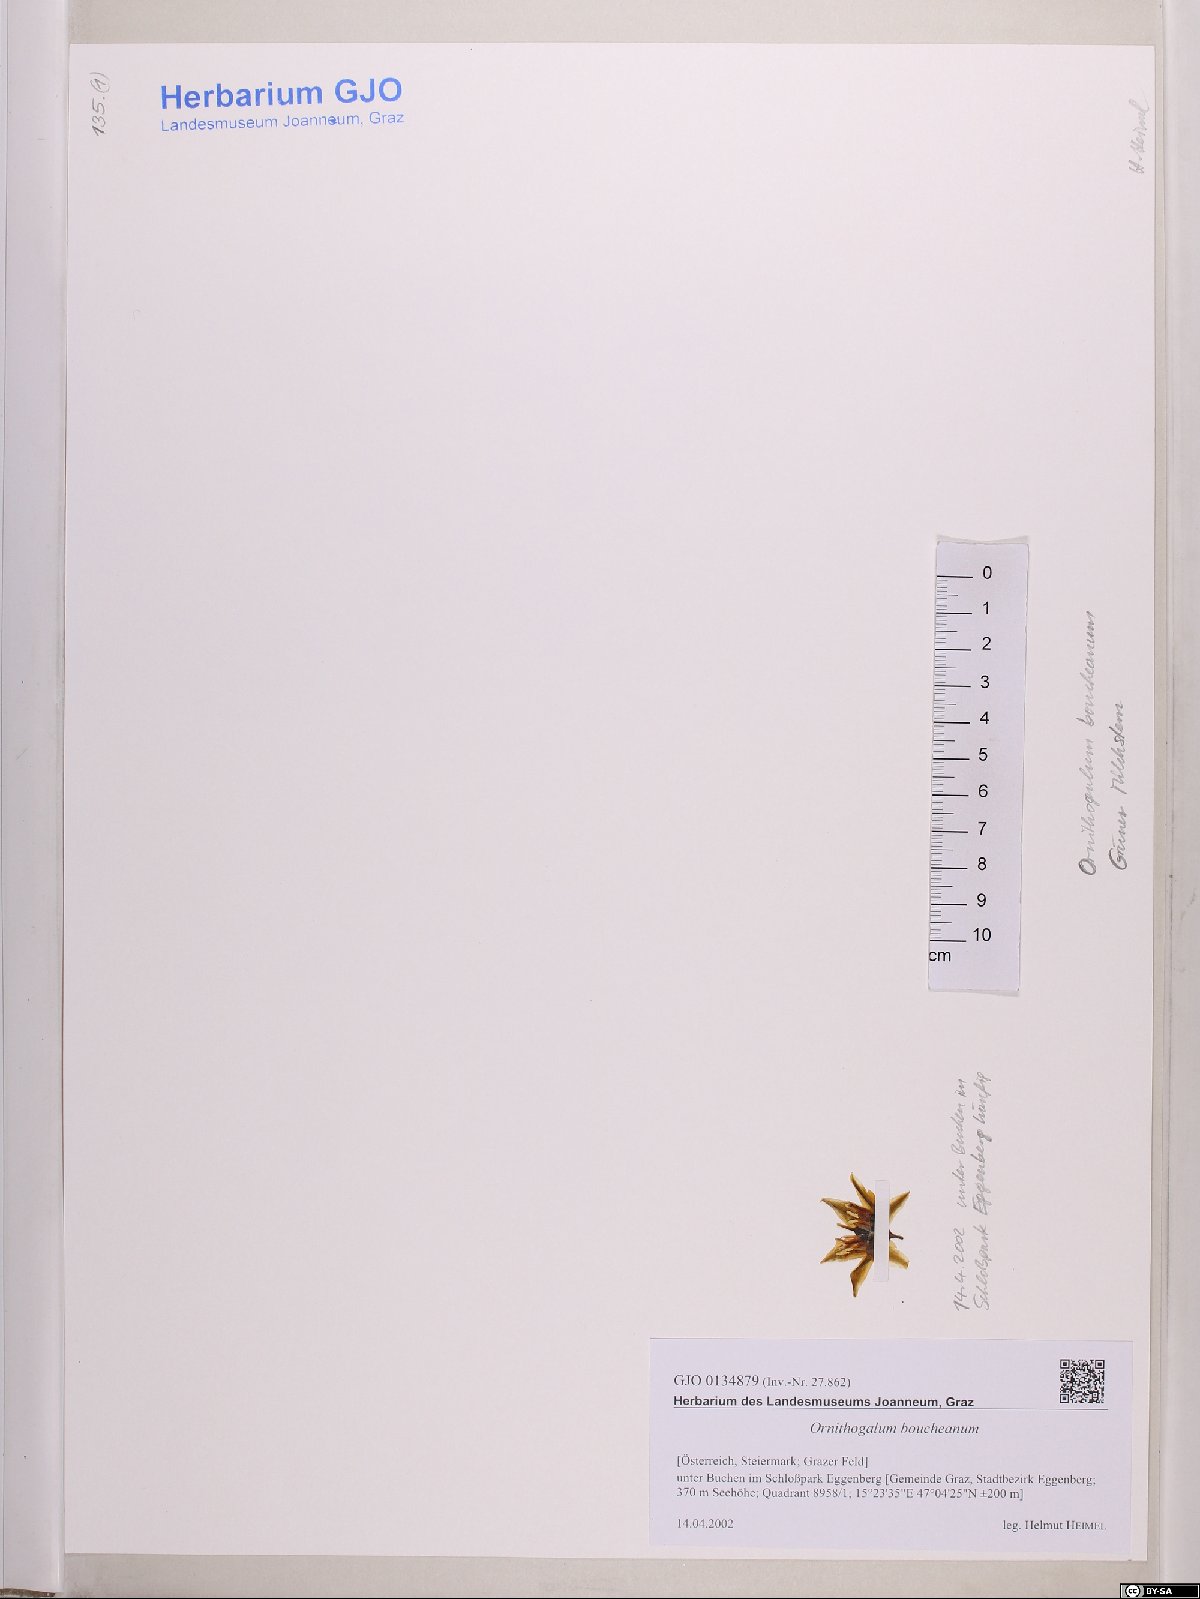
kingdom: Plantae
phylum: Tracheophyta
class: Liliopsida
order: Asparagales
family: Asparagaceae
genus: Ornithogalum
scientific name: Ornithogalum boucheanum
